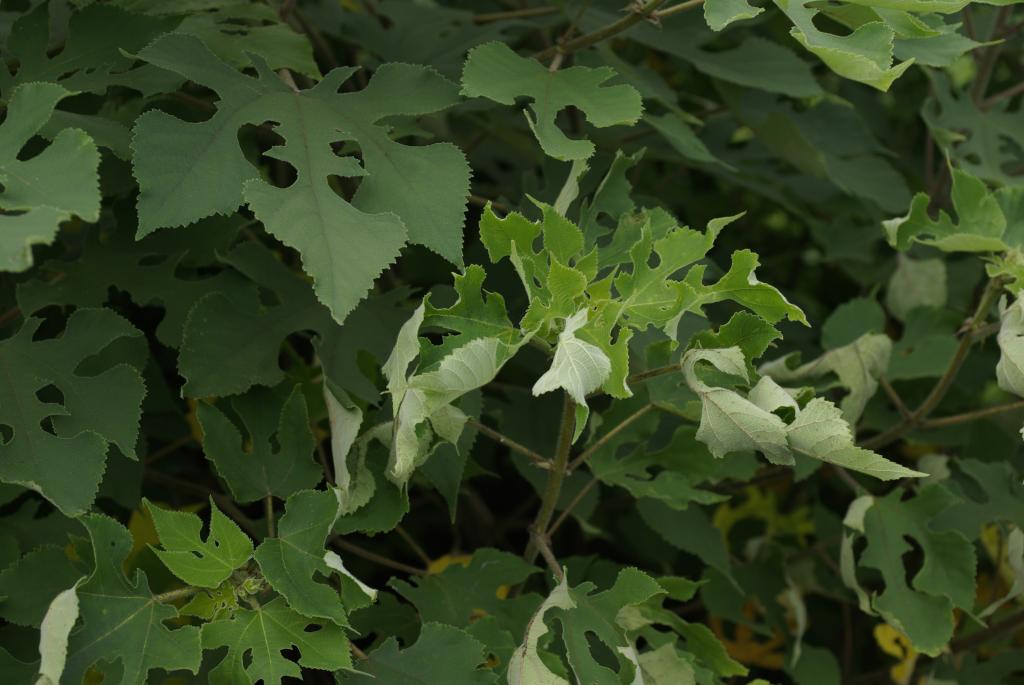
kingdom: Plantae
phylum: Tracheophyta
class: Magnoliopsida
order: Rosales
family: Moraceae
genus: Broussonetia
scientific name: Broussonetia papyrifera
